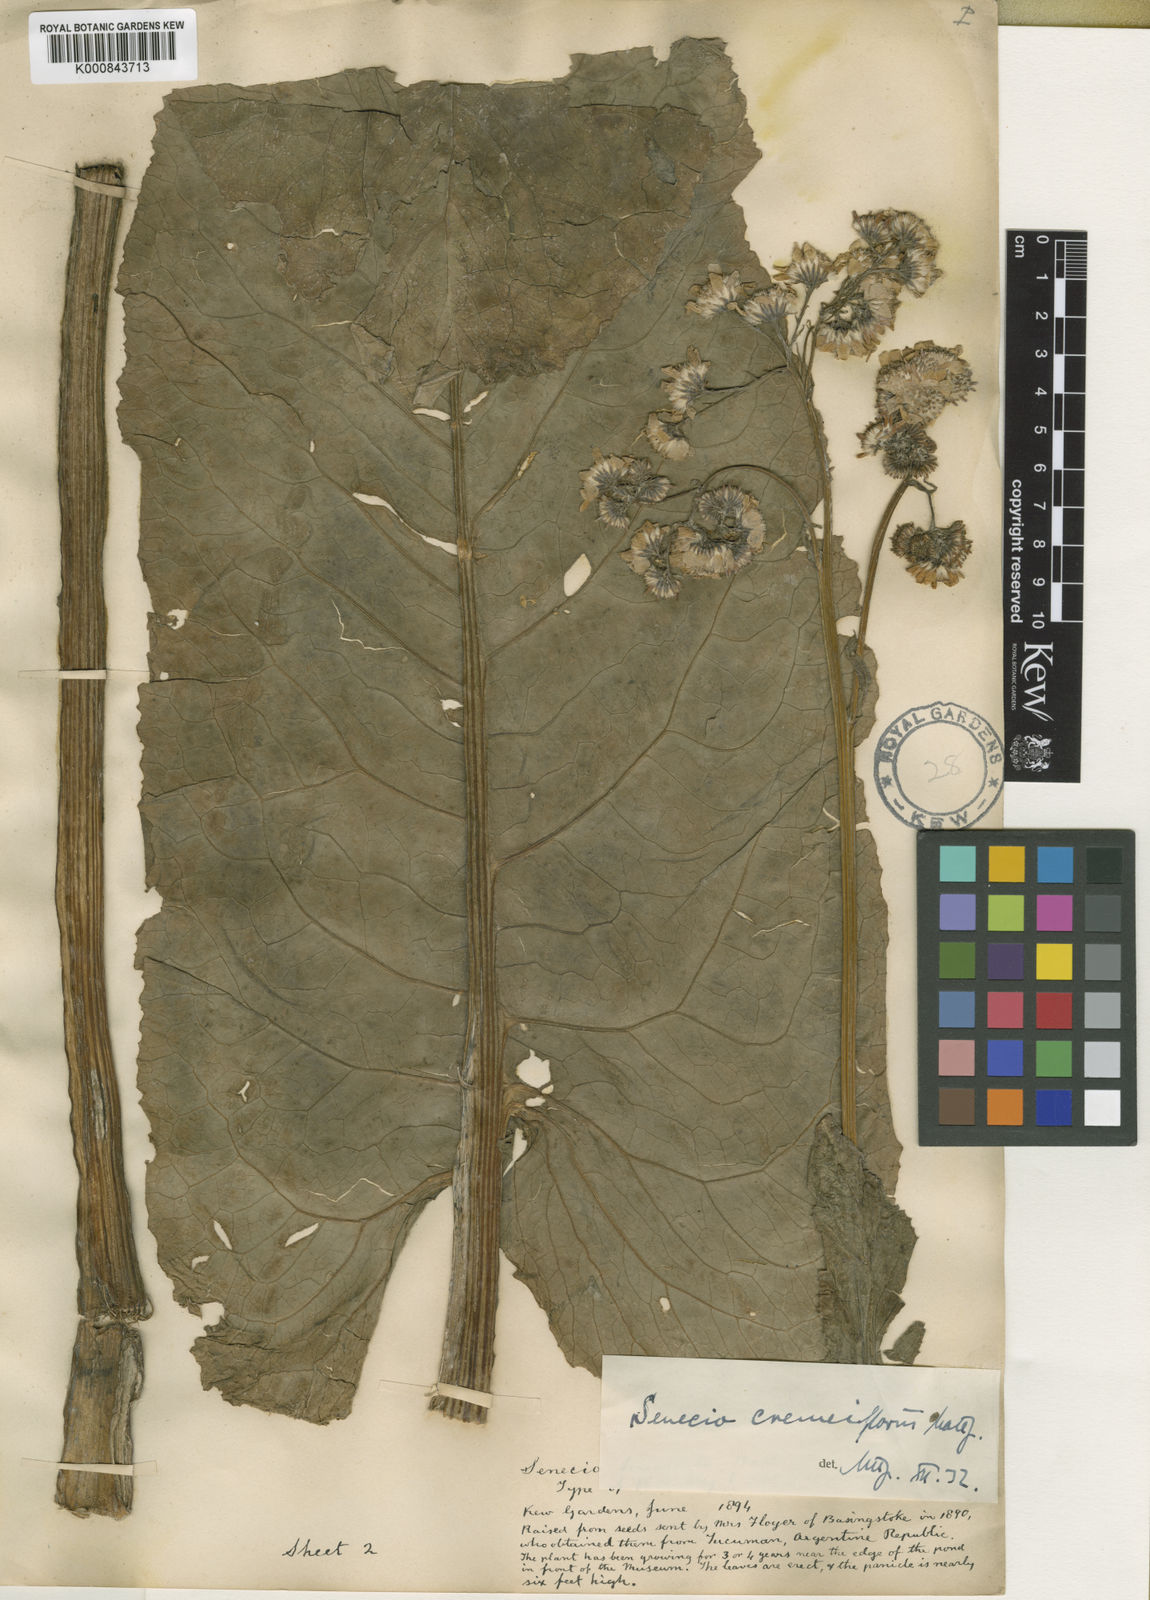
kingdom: Plantae
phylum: Tracheophyta
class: Magnoliopsida
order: Asterales
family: Asteraceae
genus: Senecio
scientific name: Senecio cremeiflorus
